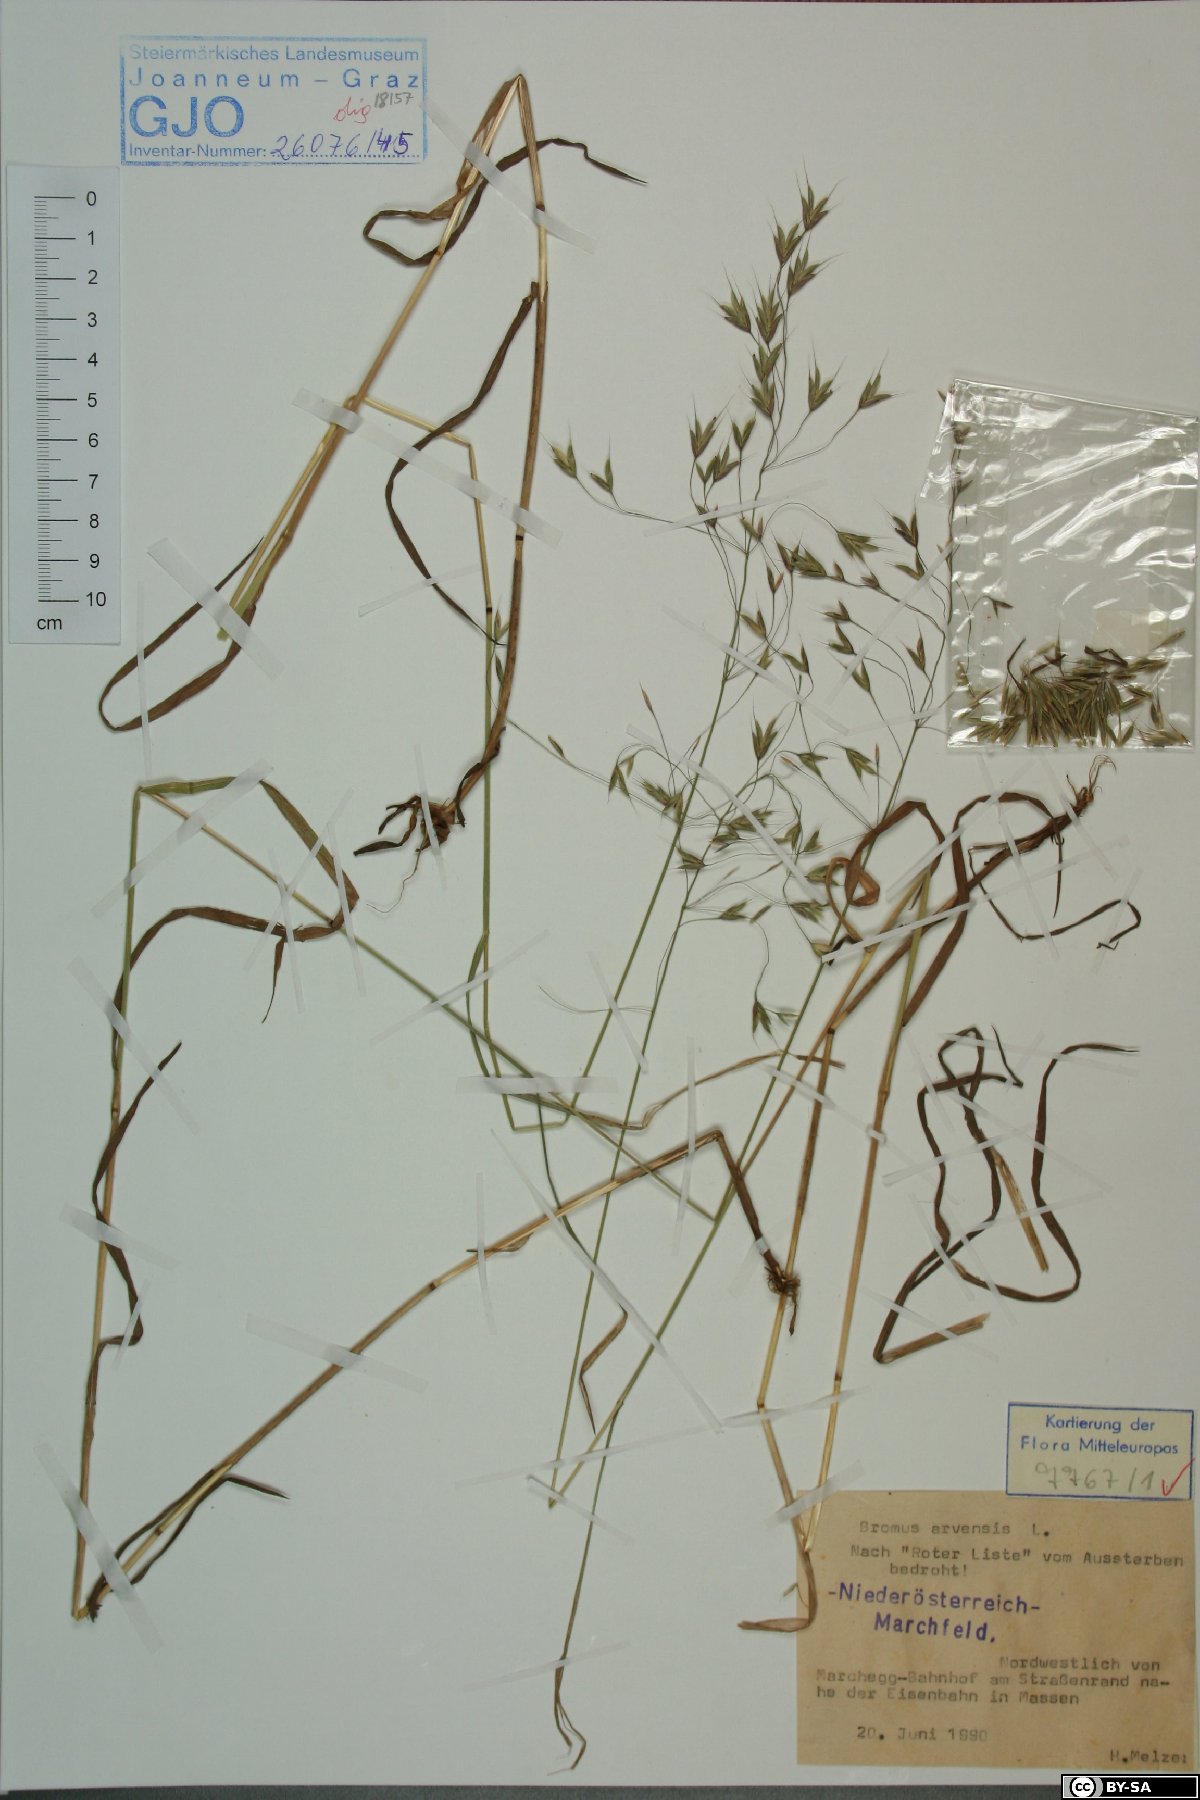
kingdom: Plantae
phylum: Tracheophyta
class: Liliopsida
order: Poales
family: Poaceae
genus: Bromus
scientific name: Bromus arvensis
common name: Field brome
